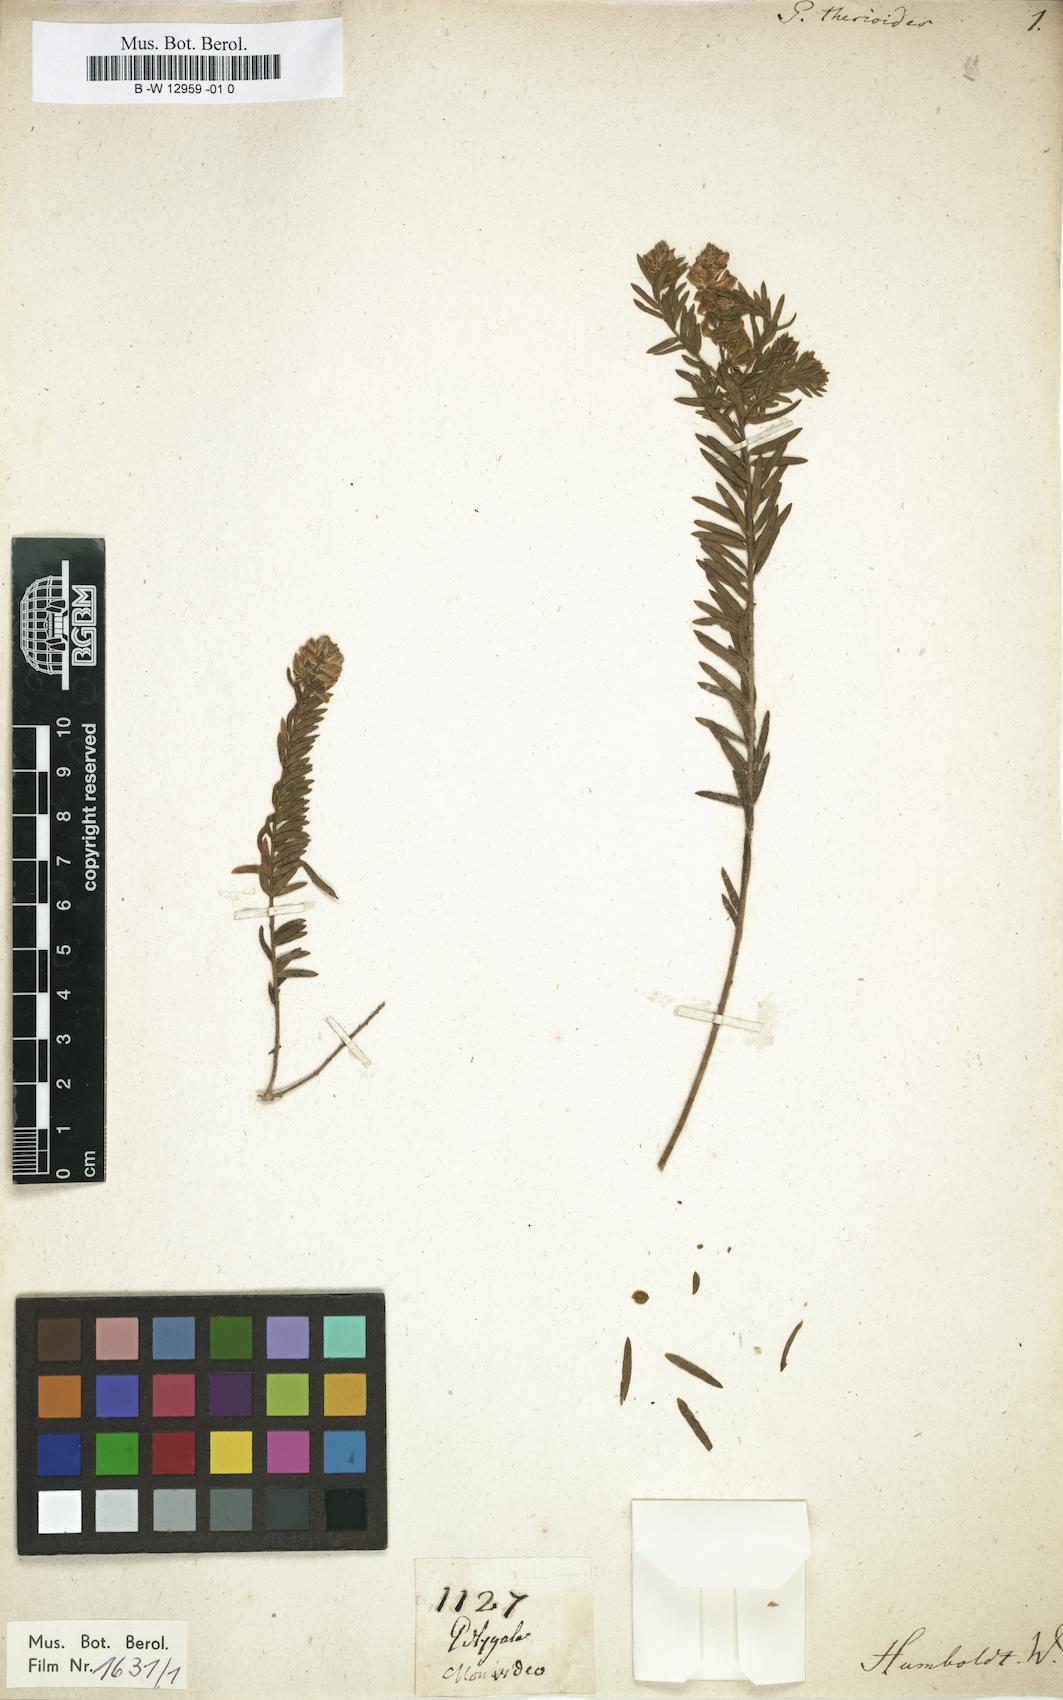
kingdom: Plantae
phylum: Tracheophyta
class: Magnoliopsida
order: Fabales
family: Polygalaceae
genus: Polygala
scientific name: Polygala gnidioides
